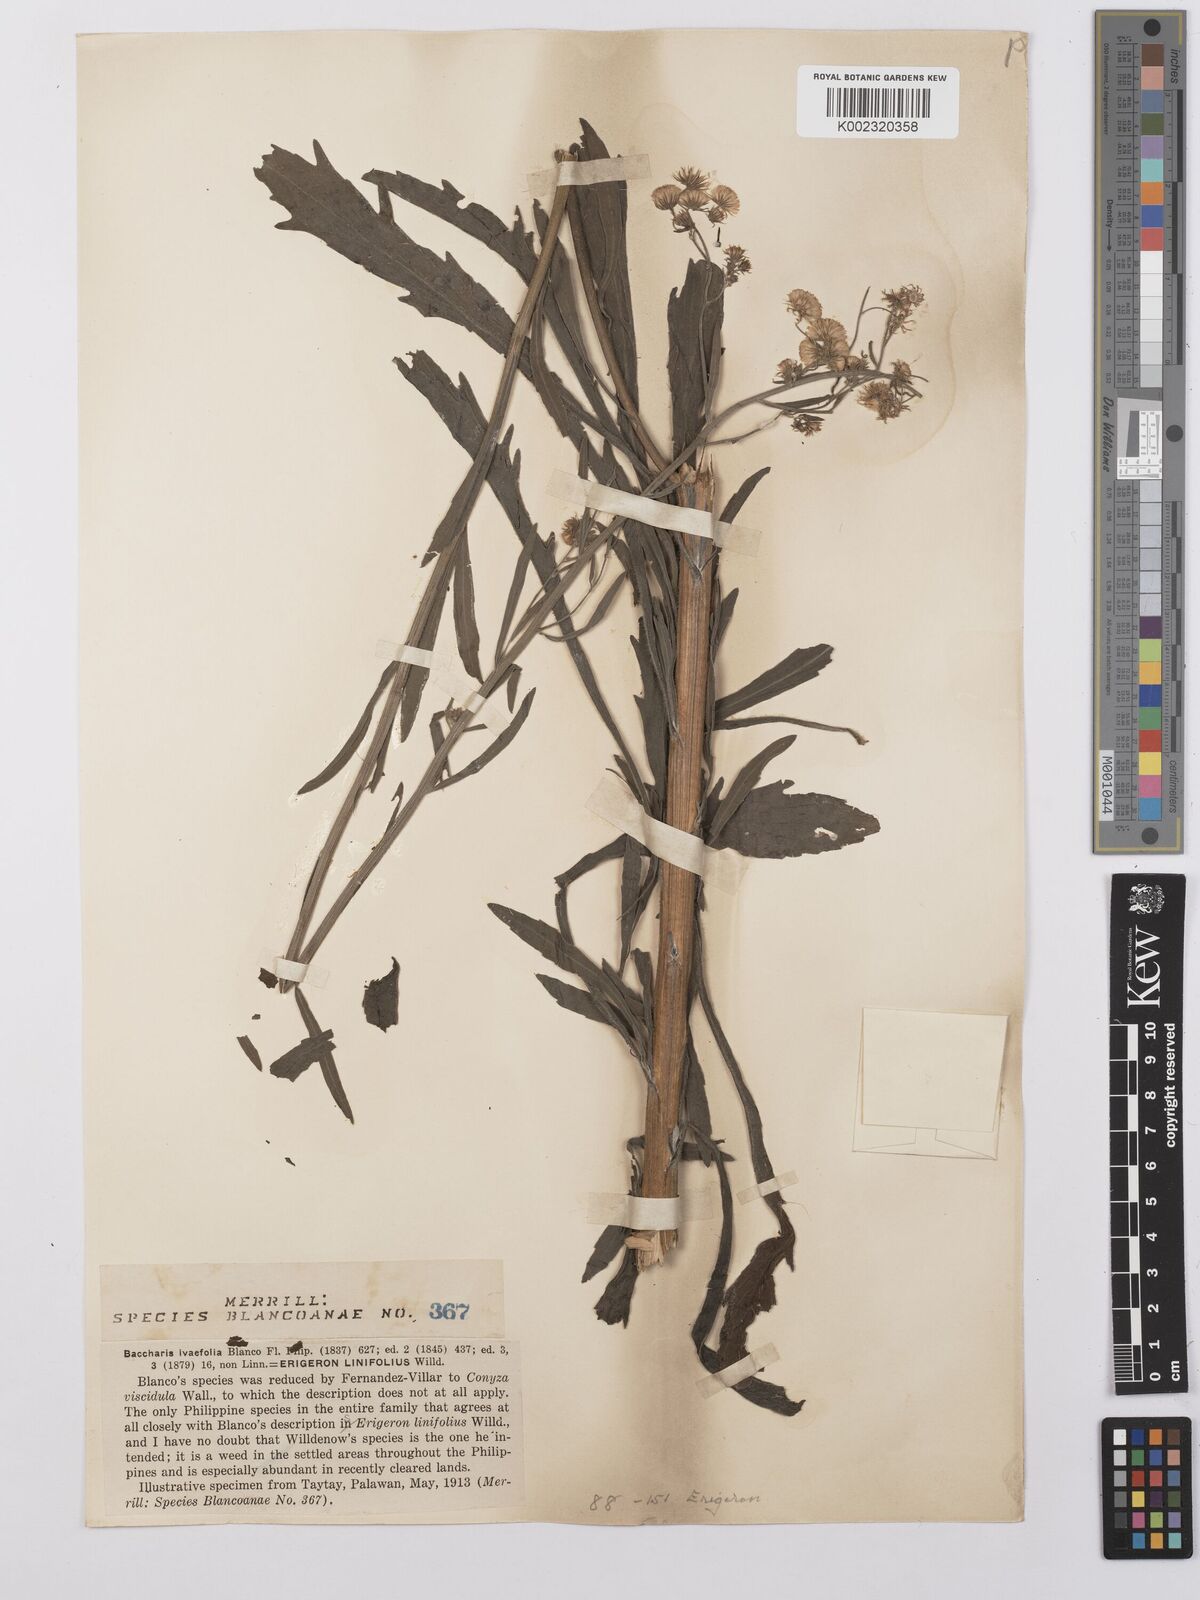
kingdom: Plantae
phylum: Tracheophyta
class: Magnoliopsida
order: Asterales
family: Asteraceae
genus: Erigeron
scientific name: Erigeron sumatrensis
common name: Daisy
